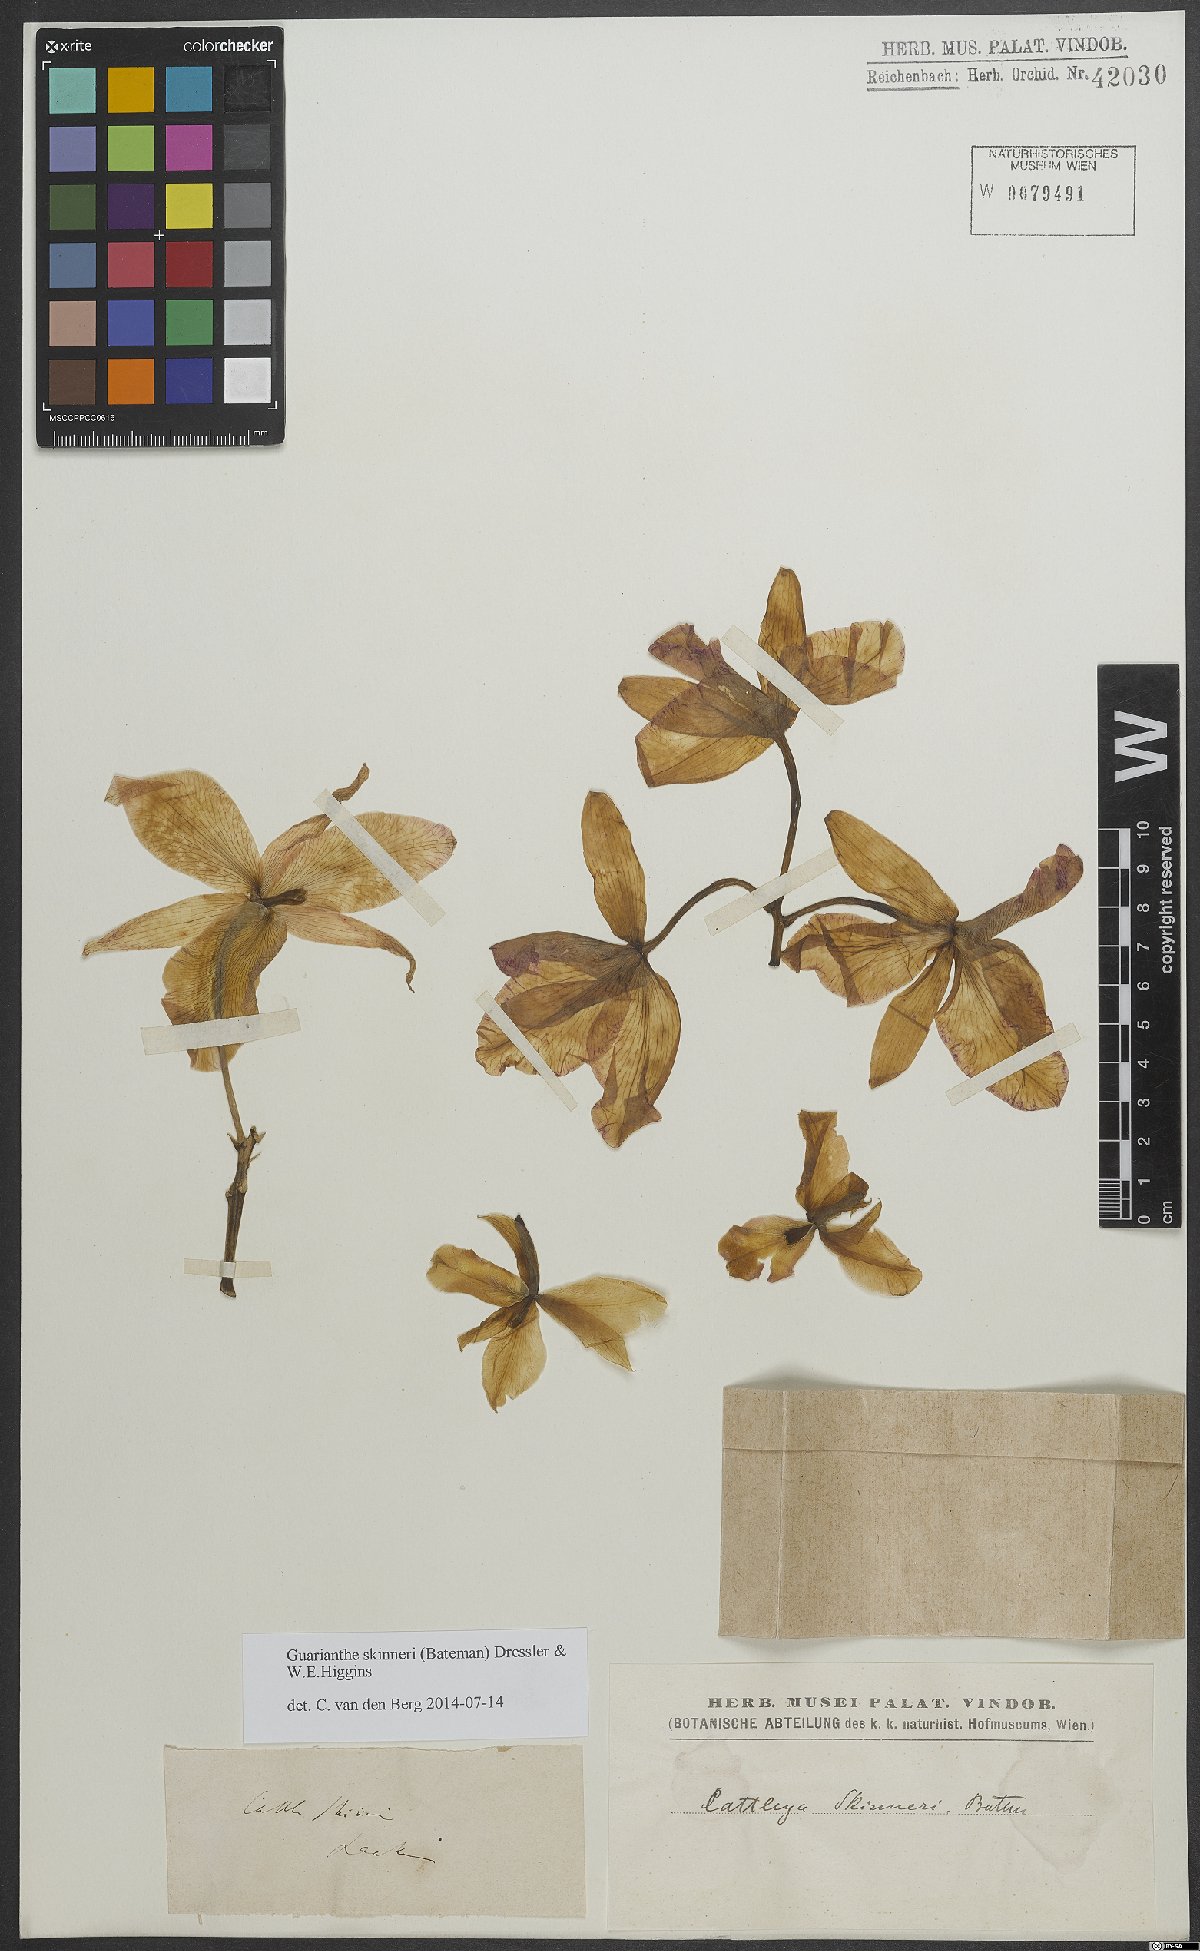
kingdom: Plantae
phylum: Tracheophyta
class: Liliopsida
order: Asparagales
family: Orchidaceae
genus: Guarianthe
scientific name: Guarianthe skinneri
